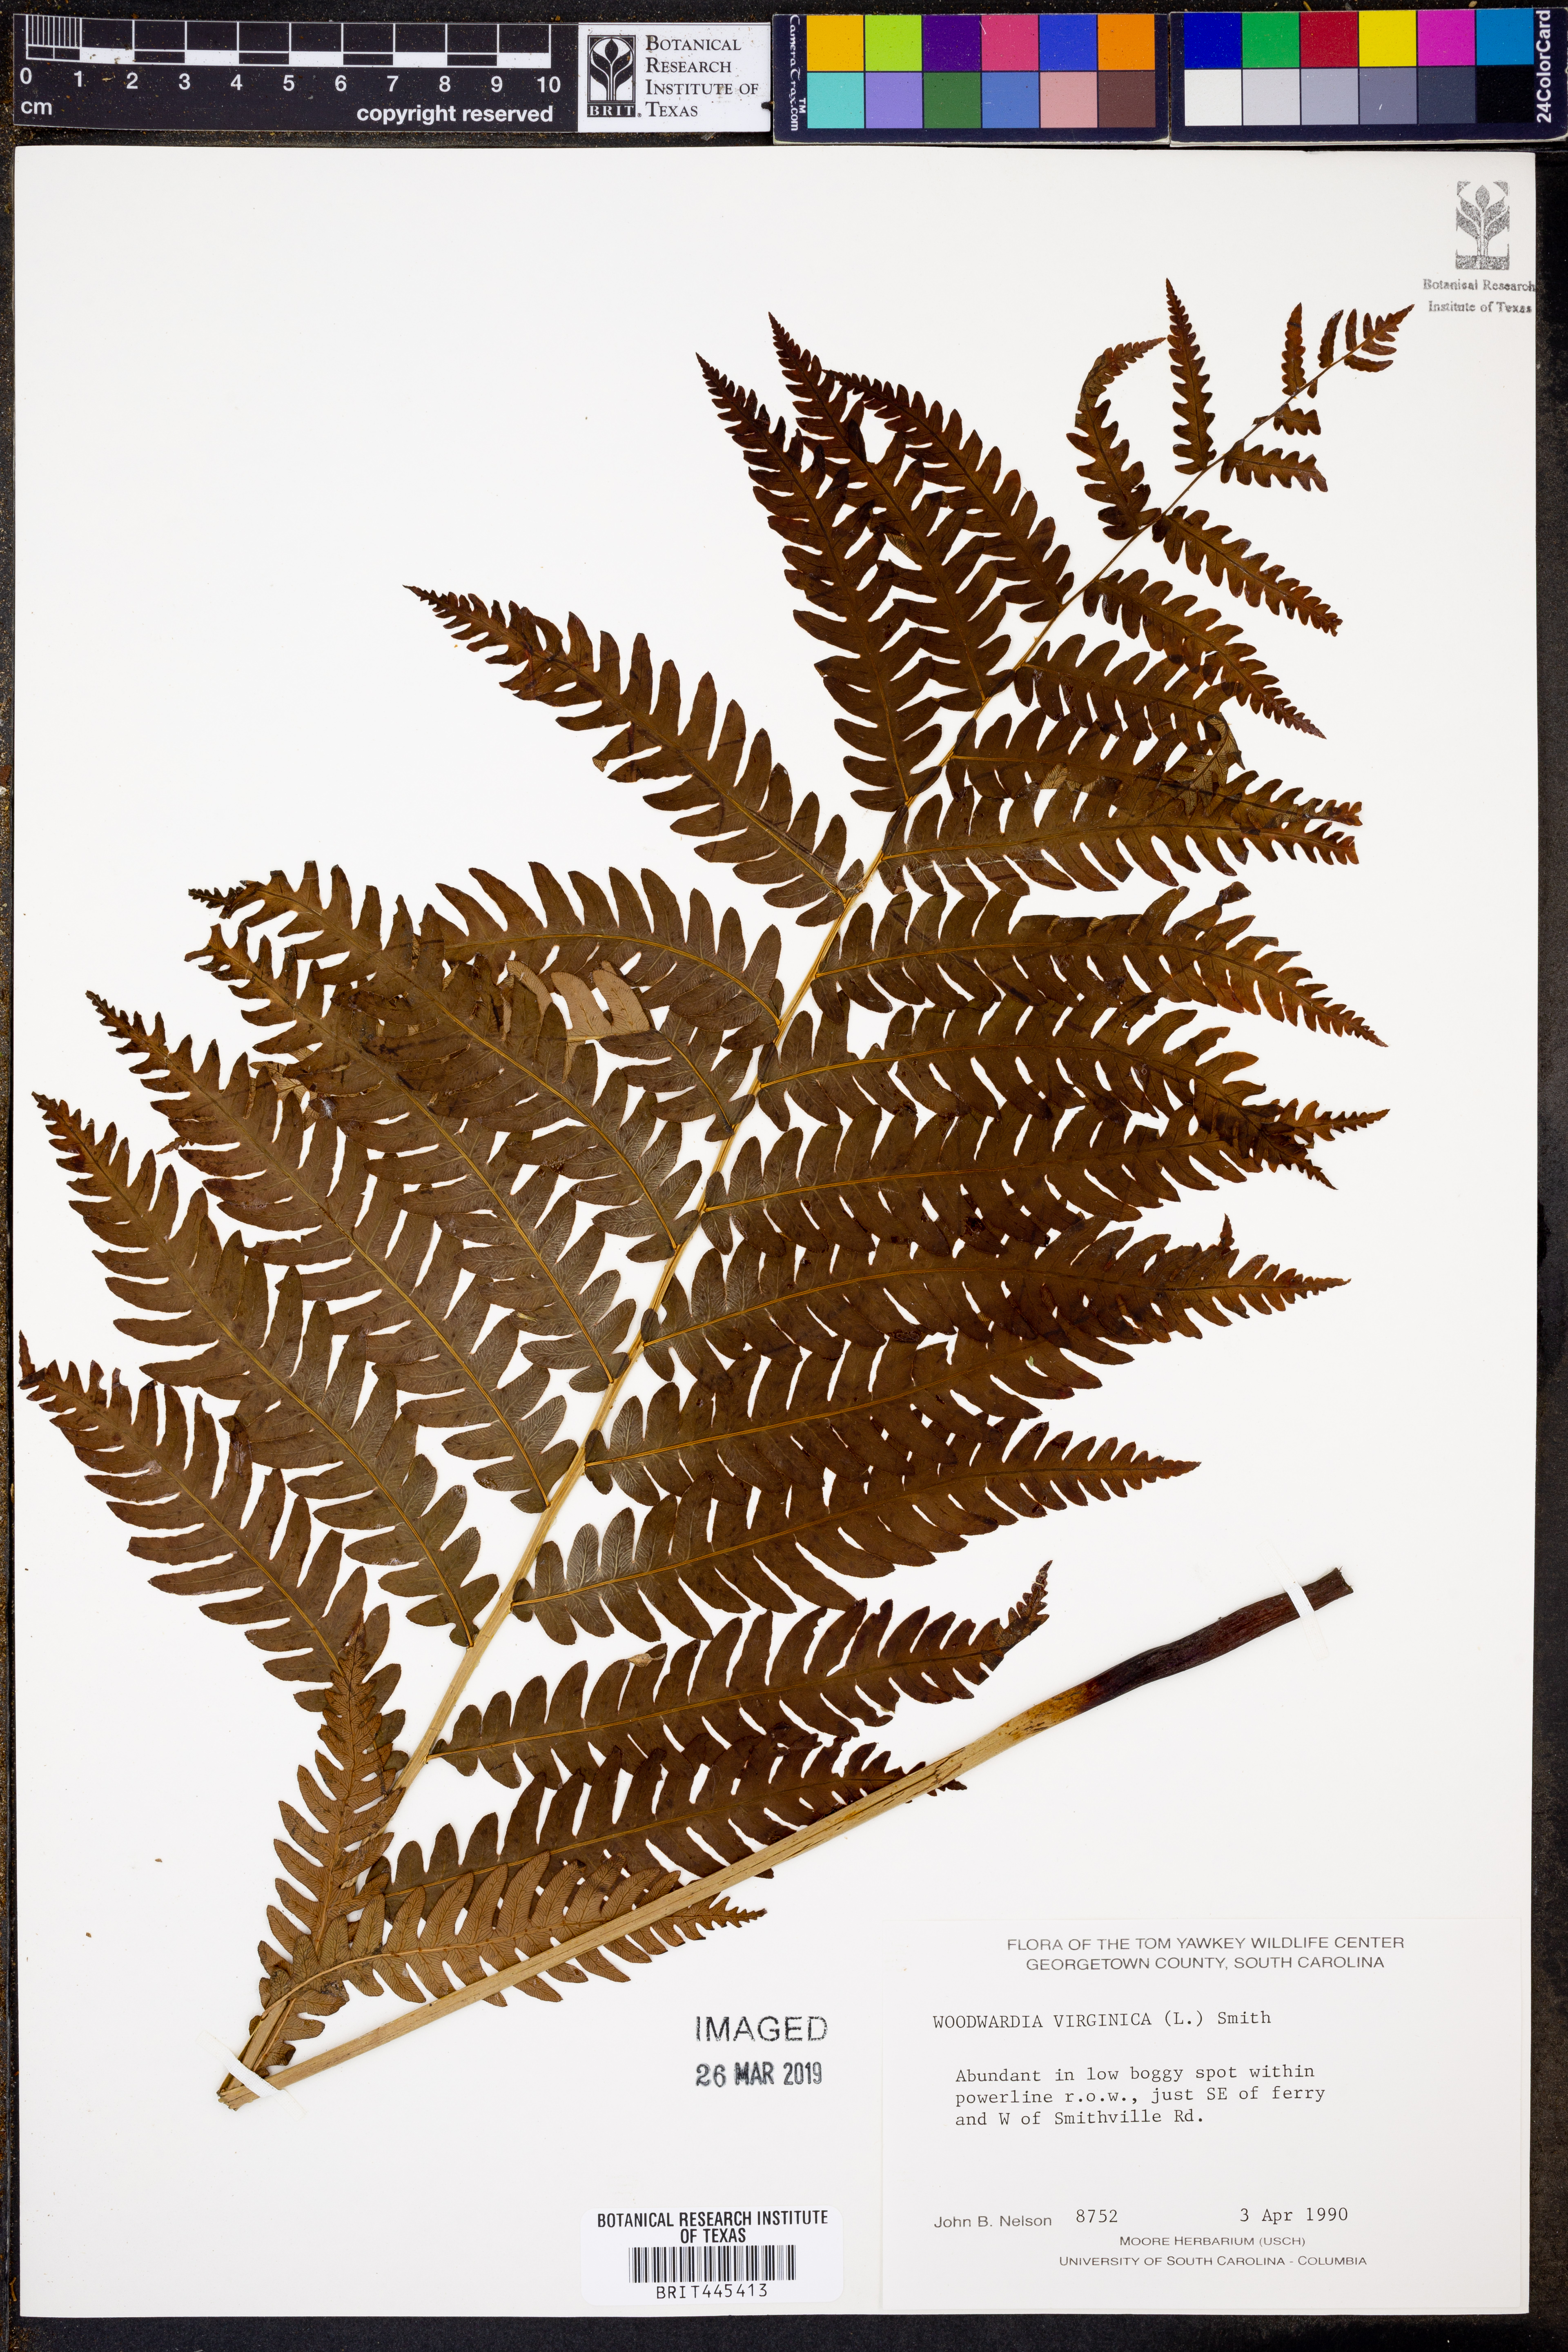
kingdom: Plantae
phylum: Tracheophyta
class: Polypodiopsida
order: Polypodiales
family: Blechnaceae
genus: Anchistea
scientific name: Anchistea virginica
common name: Virginia chain fern
